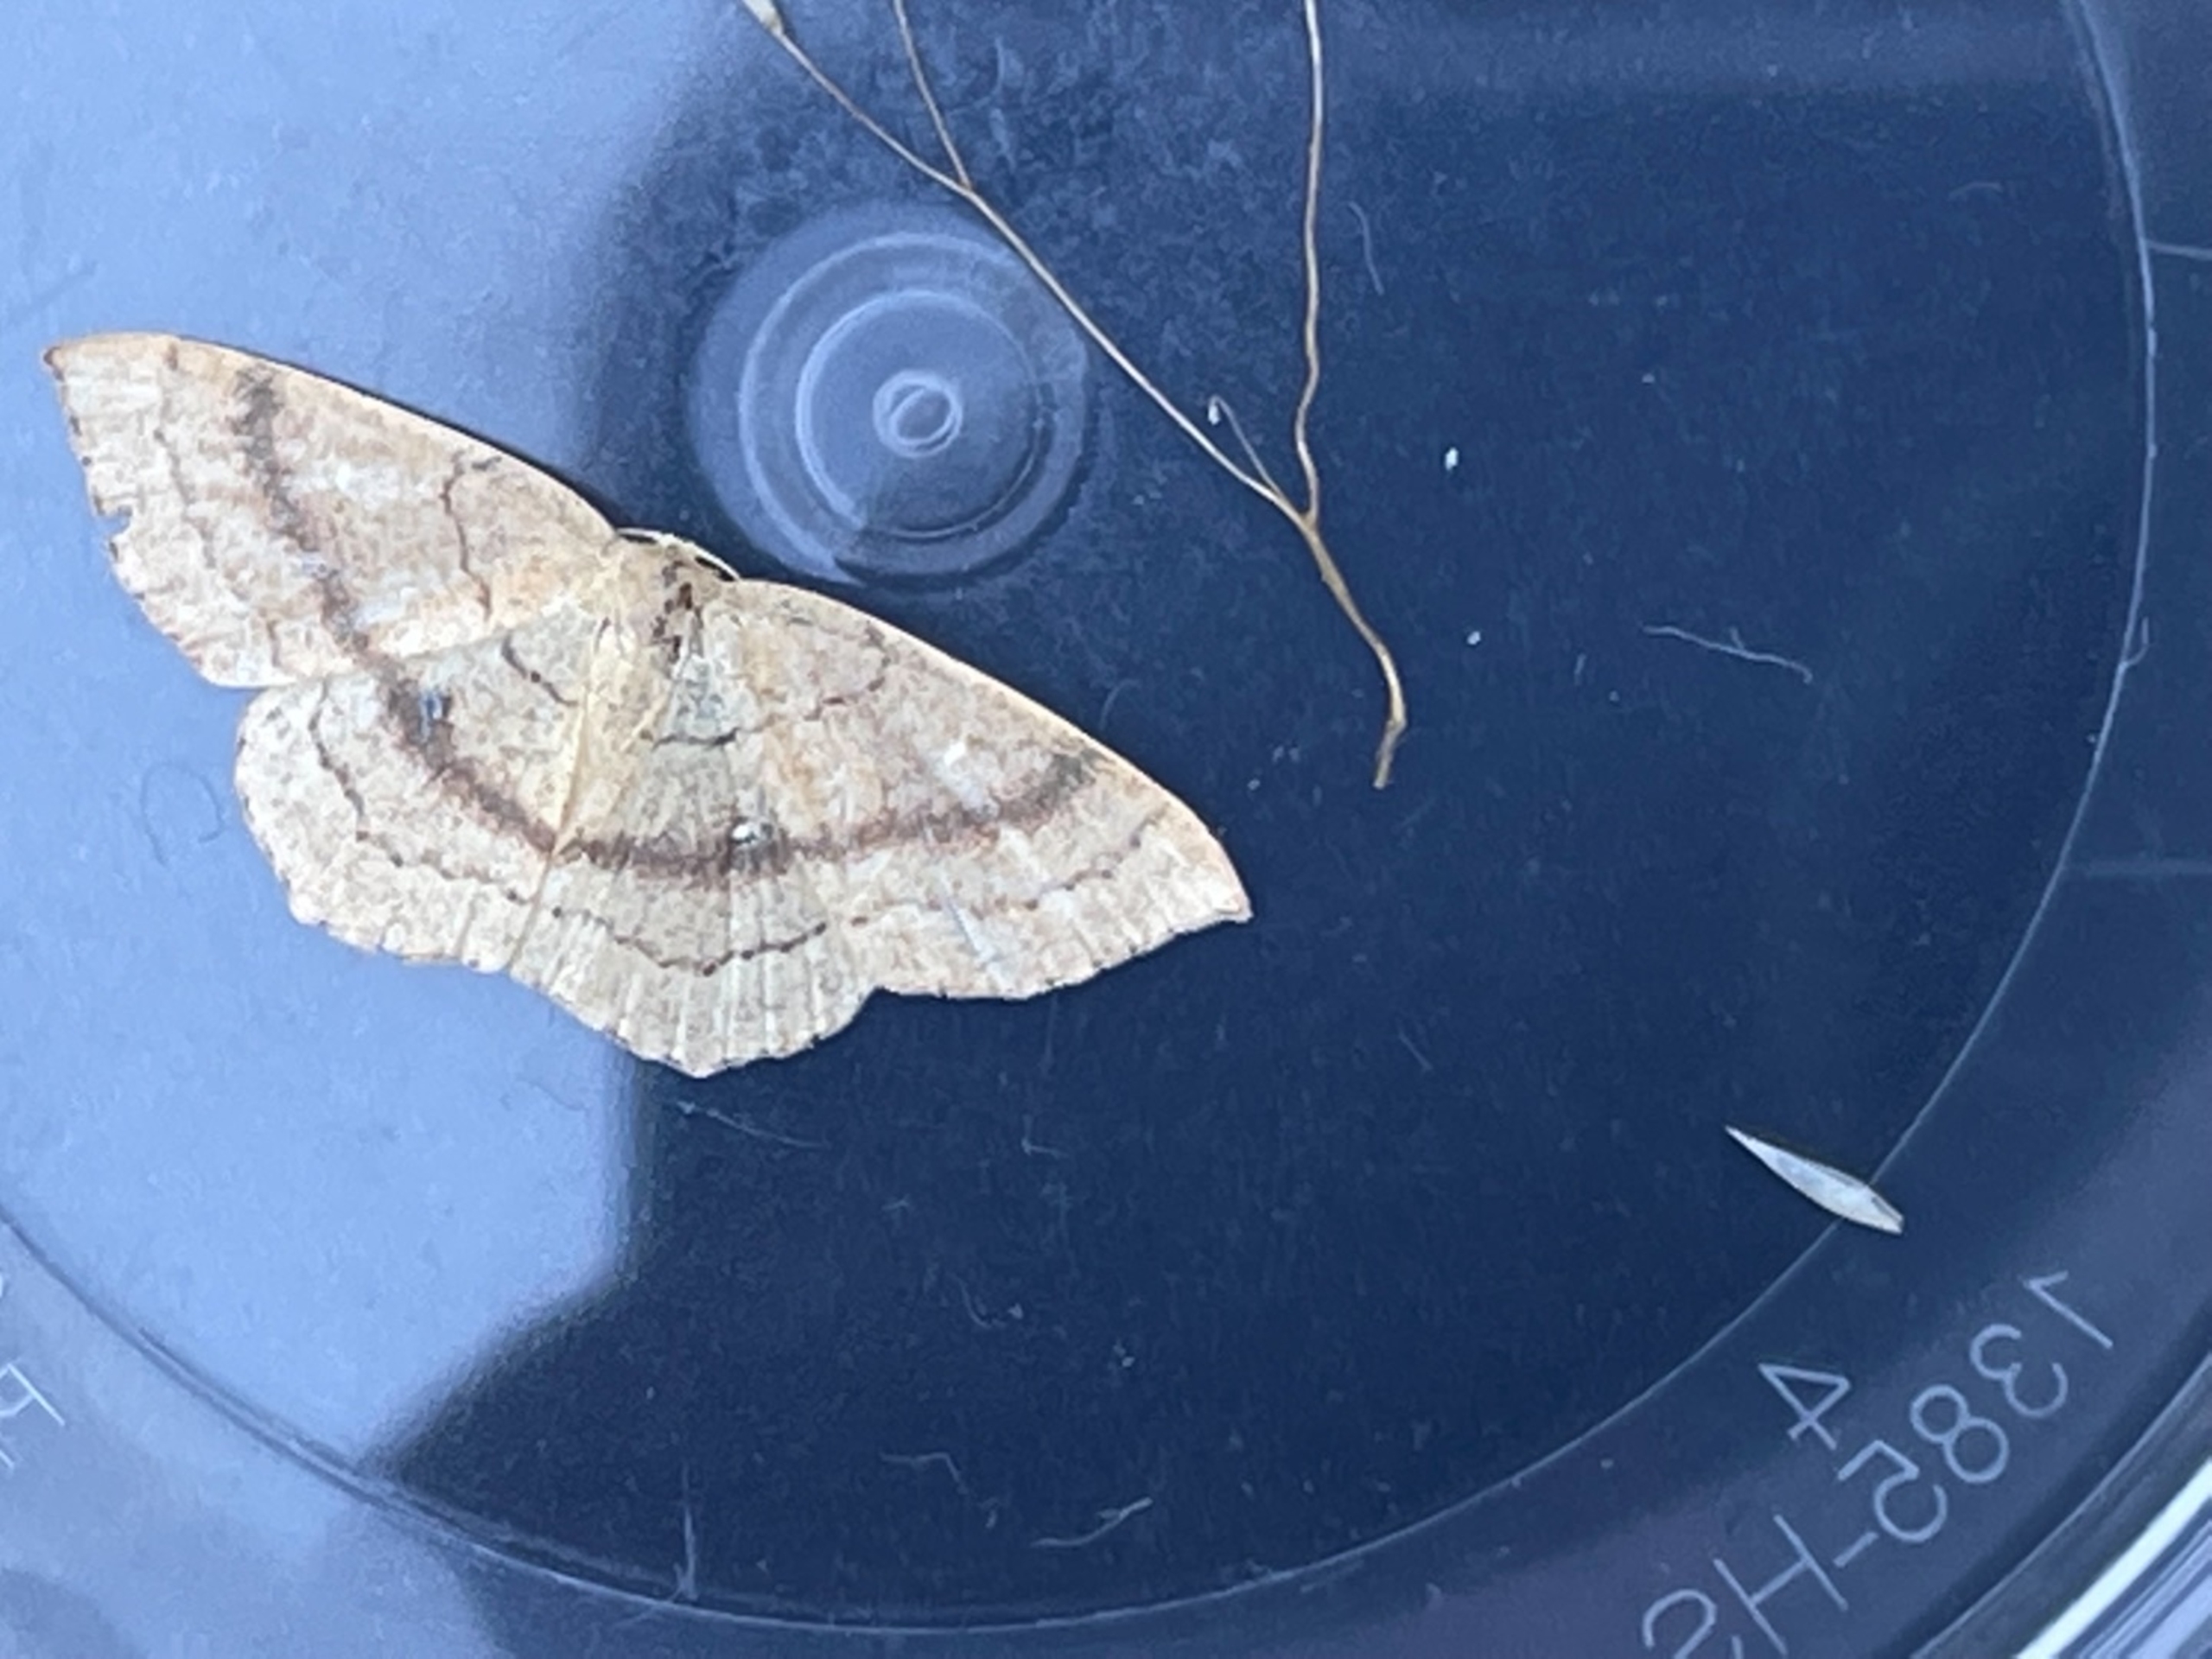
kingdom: Animalia
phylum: Arthropoda
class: Insecta
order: Lepidoptera
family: Geometridae
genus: Cyclophora
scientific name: Cyclophora linearia
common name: Bøge-bæltemåler
